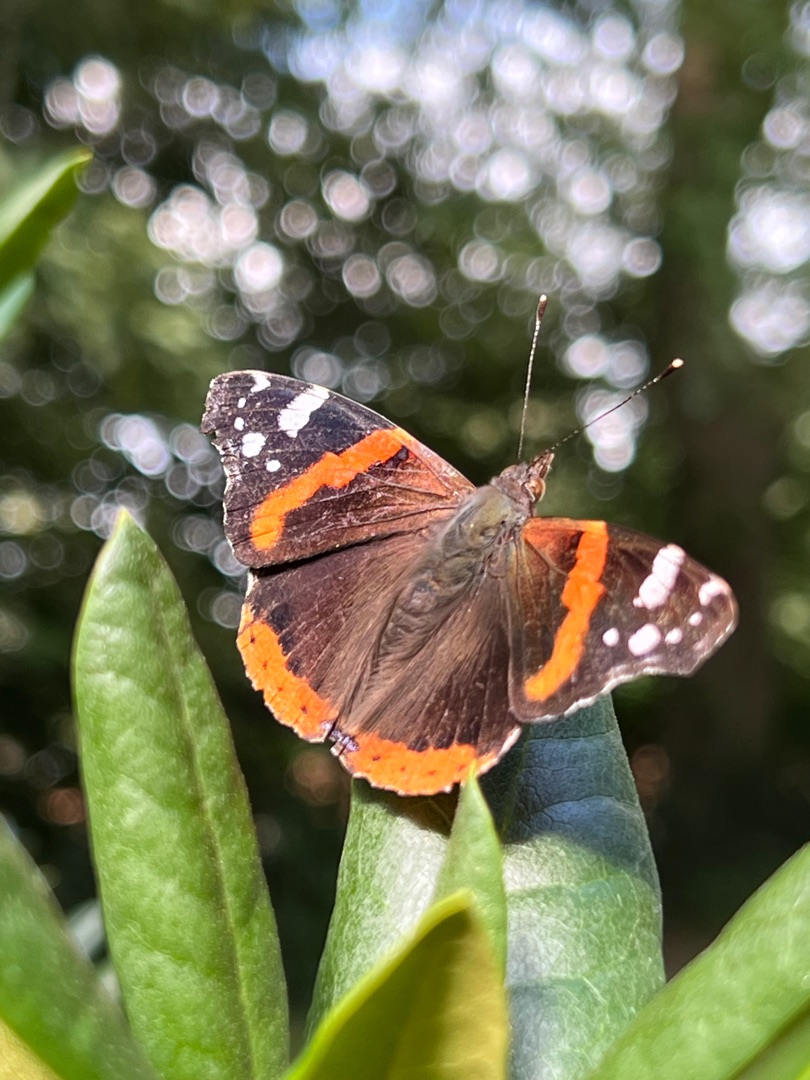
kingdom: Animalia
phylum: Arthropoda
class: Insecta
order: Lepidoptera
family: Nymphalidae
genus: Vanessa
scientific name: Vanessa atalanta
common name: Admiral
